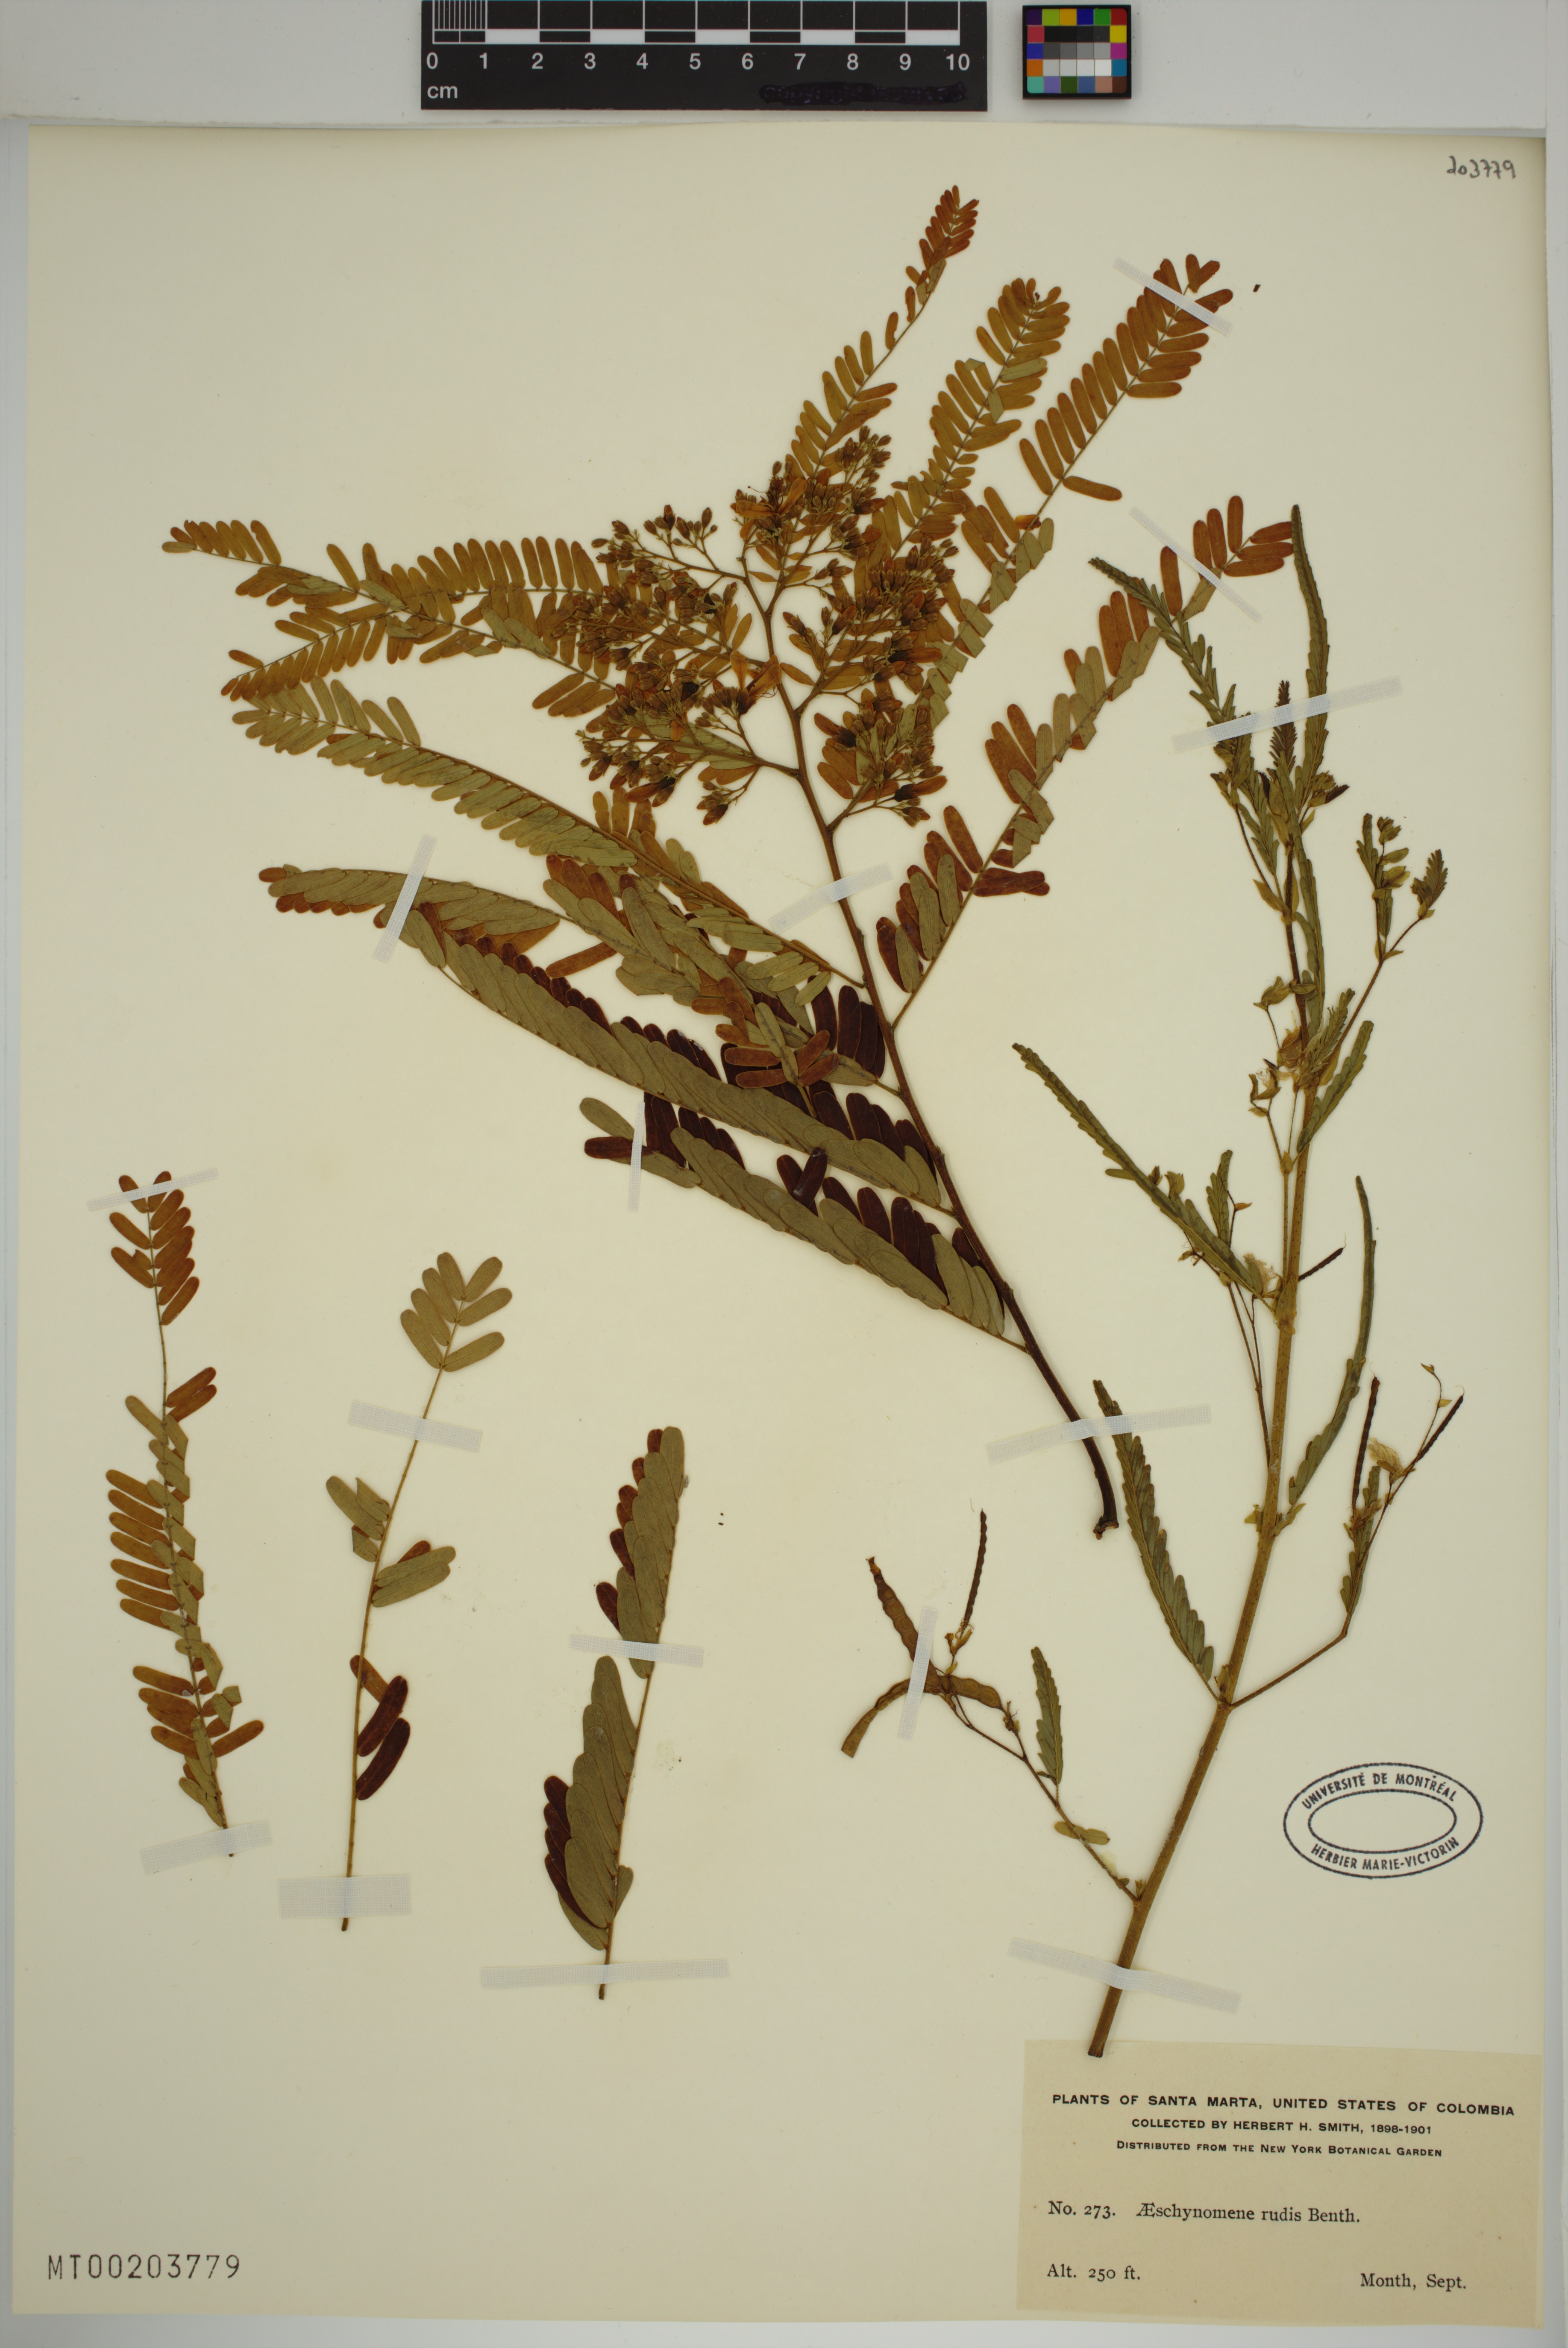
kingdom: Plantae
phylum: Tracheophyta
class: Magnoliopsida
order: Fabales
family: Fabaceae
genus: Aeschynomene
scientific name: Aeschynomene rudis
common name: Rough joint-vetch
